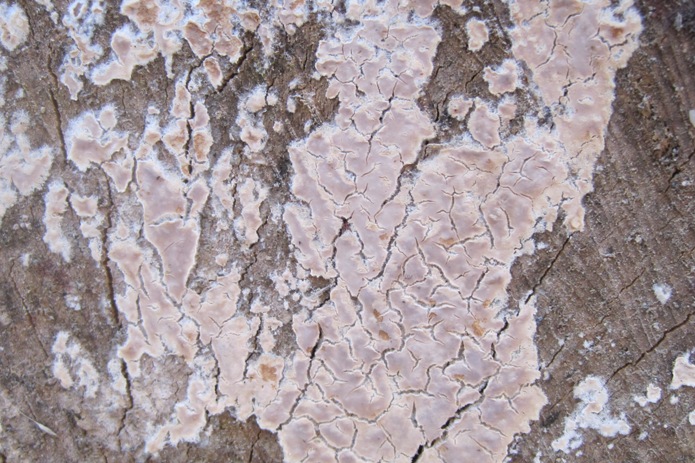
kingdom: Fungi
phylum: Basidiomycota
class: Agaricomycetes
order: Agaricales
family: Physalacriaceae
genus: Cylindrobasidium
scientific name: Cylindrobasidium evolvens
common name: sprækkehinde
